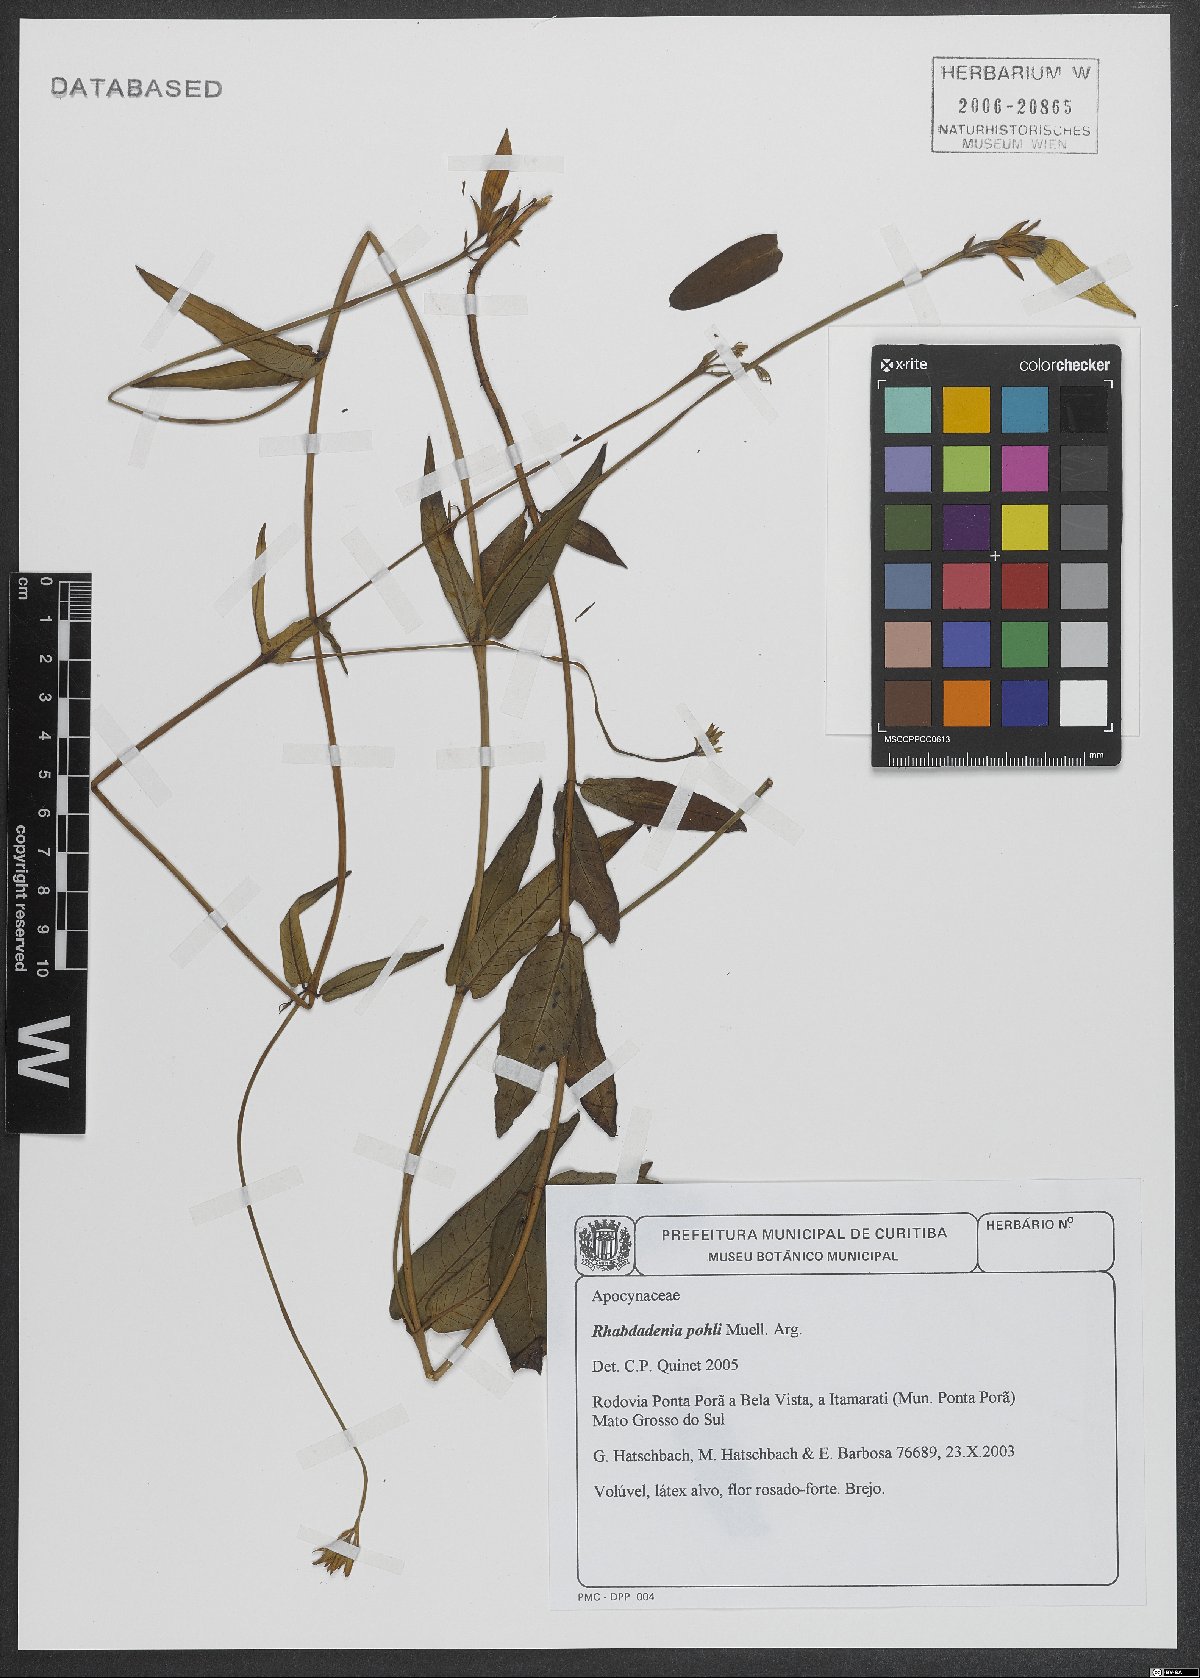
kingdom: Plantae
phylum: Tracheophyta
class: Magnoliopsida
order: Gentianales
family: Apocynaceae
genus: Rhabdadenia
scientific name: Rhabdadenia madida
